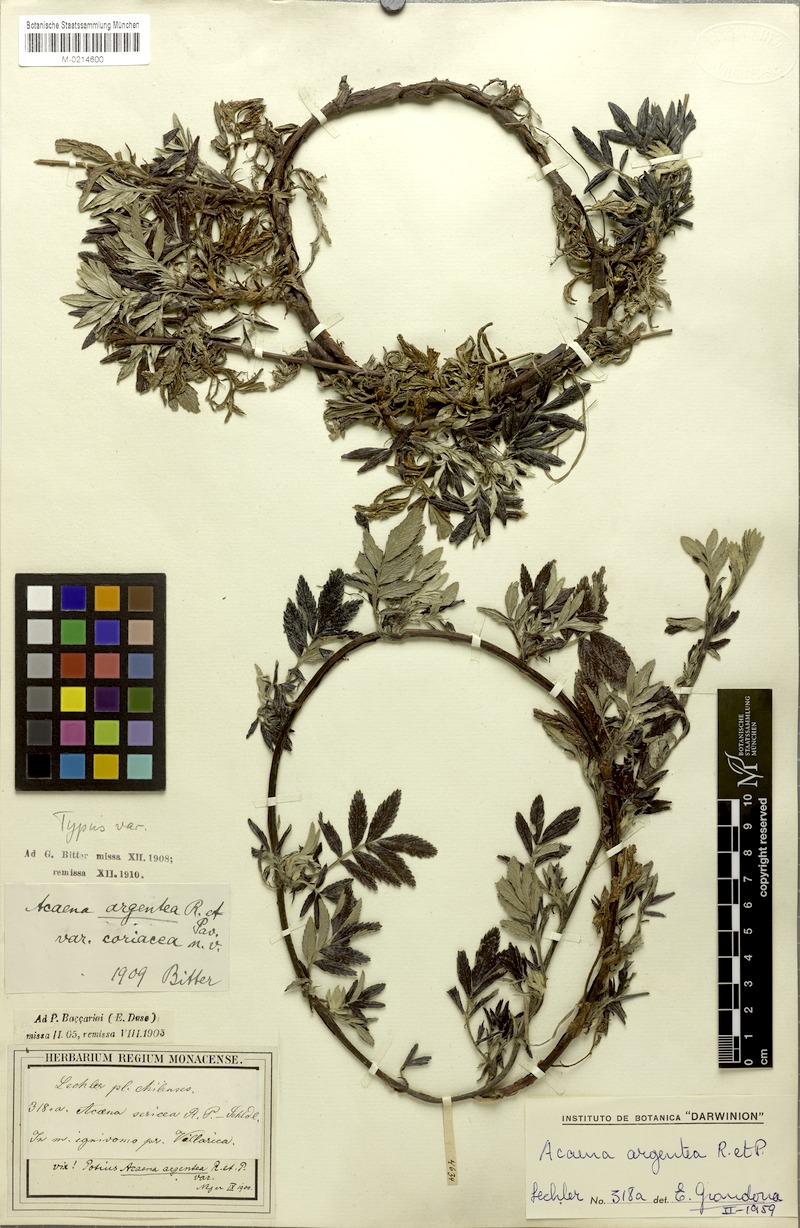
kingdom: Plantae
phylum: Tracheophyta
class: Magnoliopsida
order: Rosales
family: Rosaceae
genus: Acaena
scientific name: Acaena argentea
